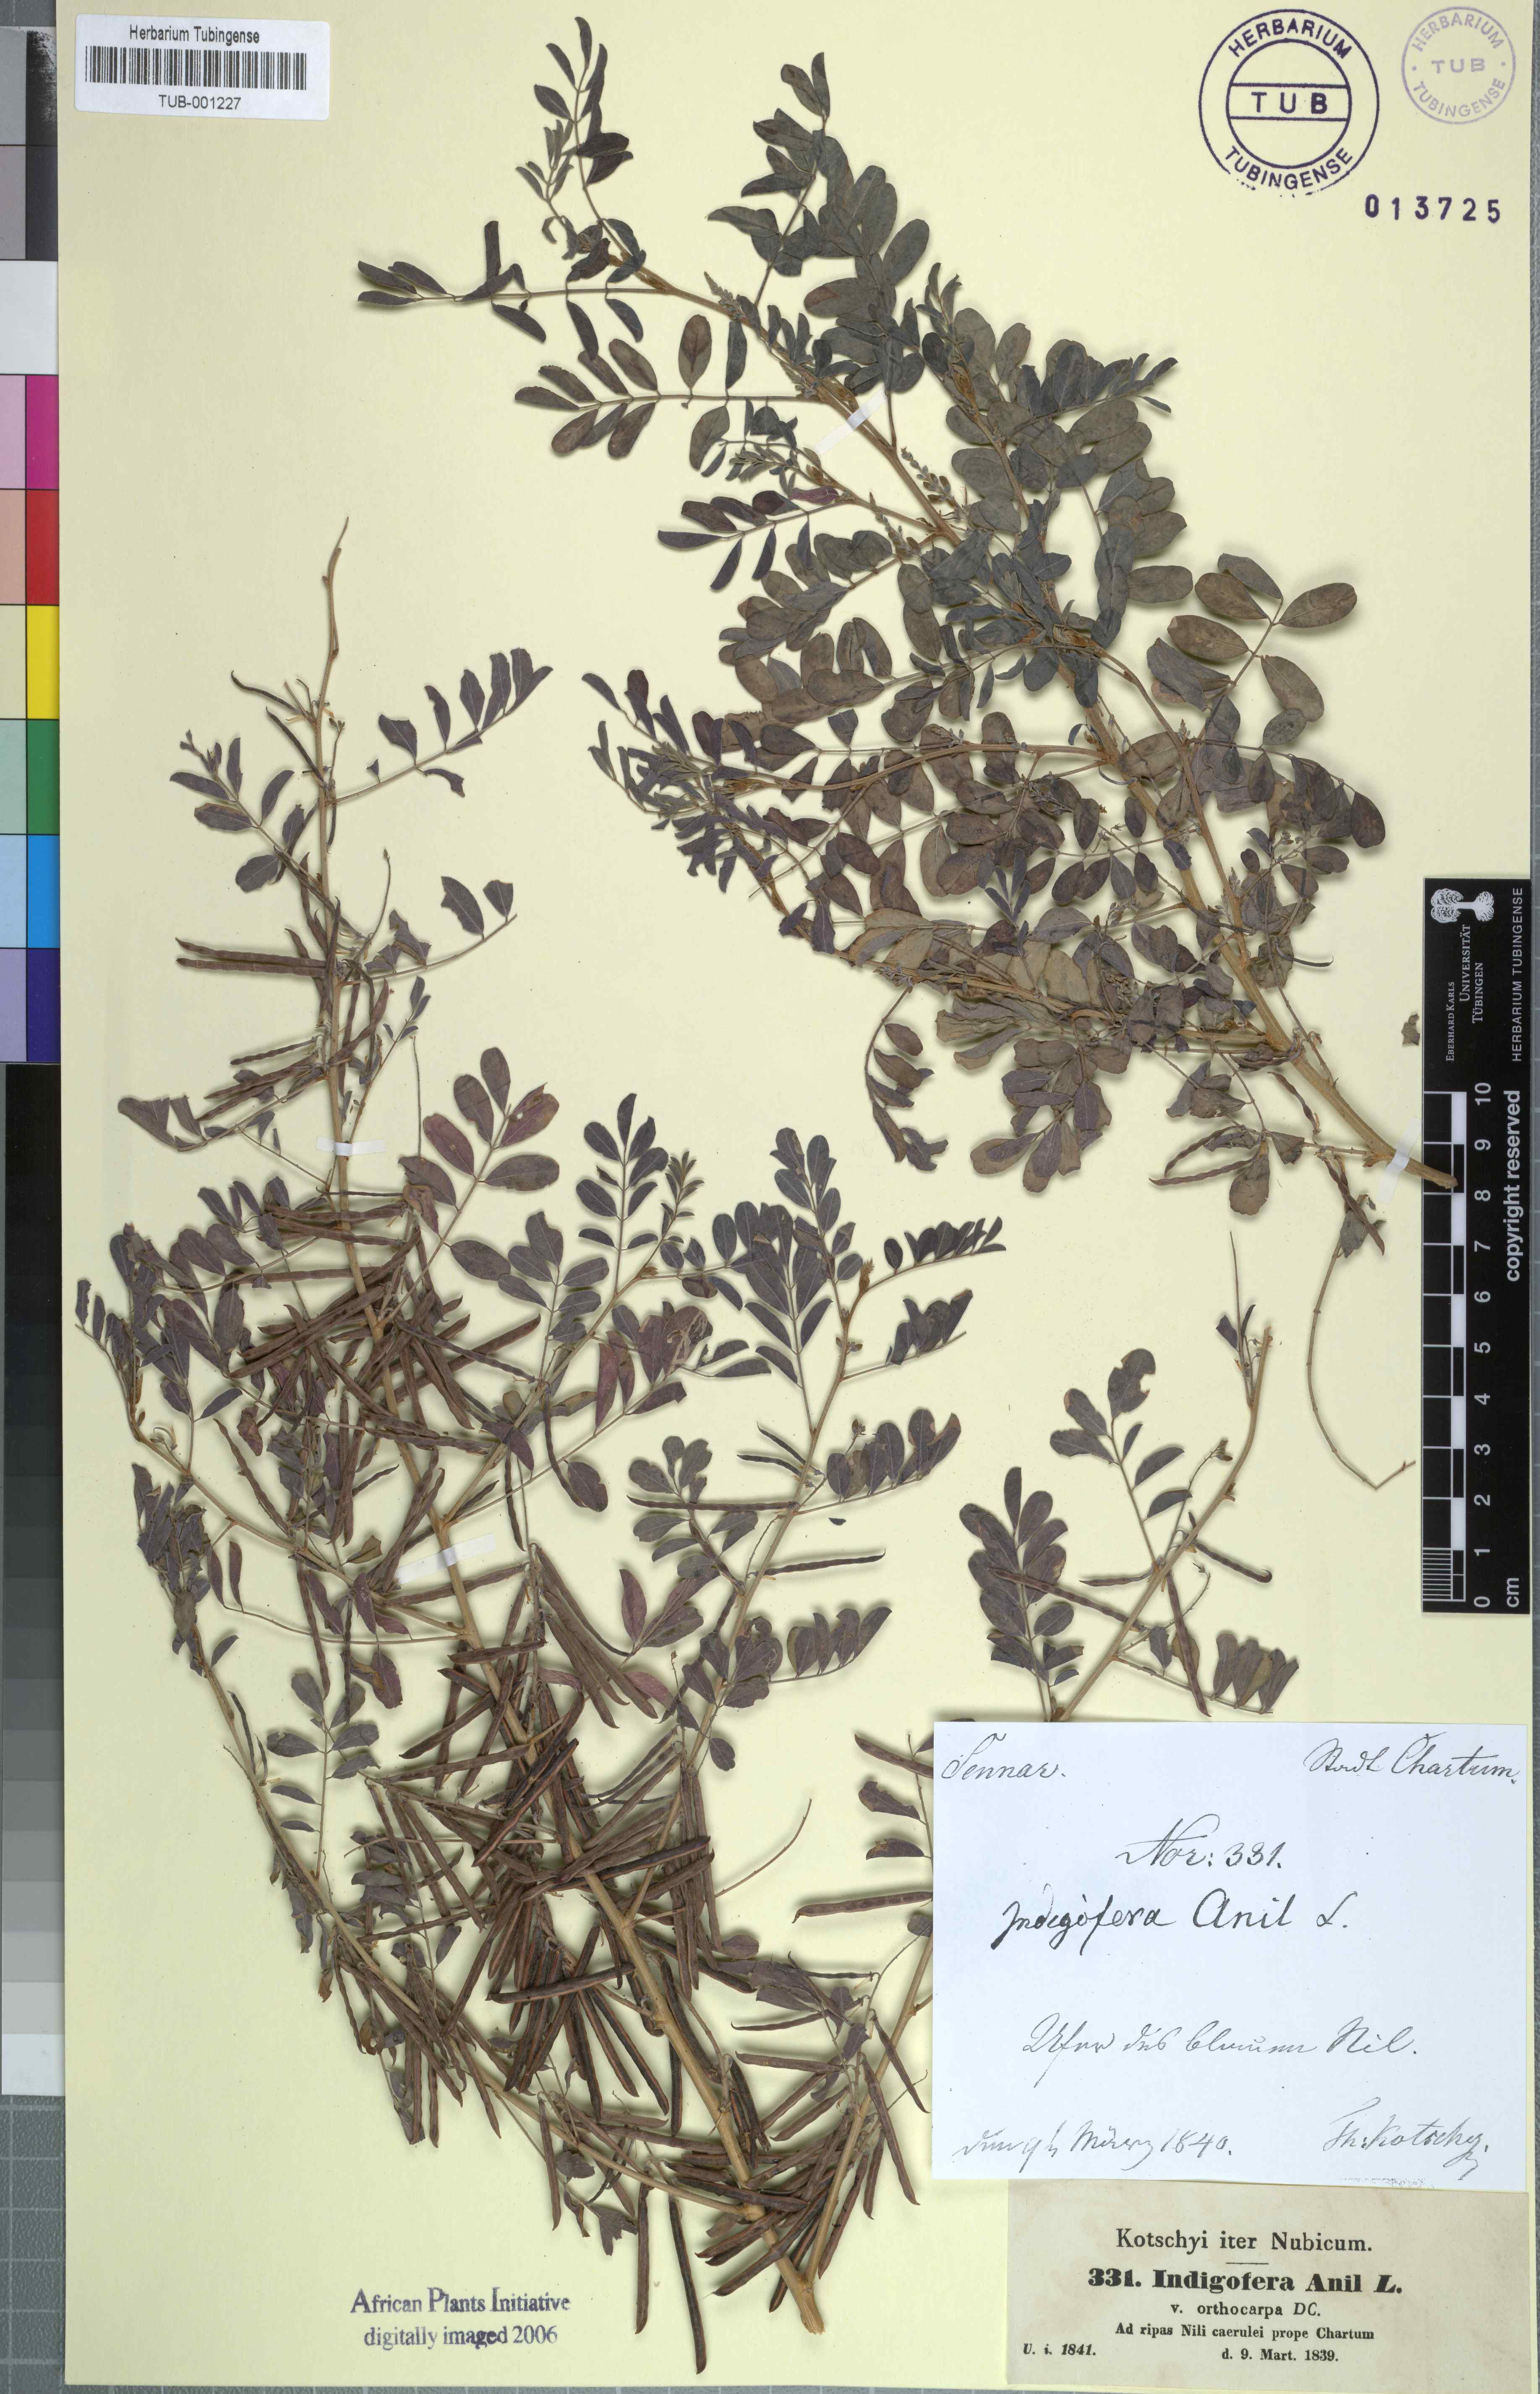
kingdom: Plantae
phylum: Tracheophyta
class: Magnoliopsida
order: Fabales
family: Fabaceae
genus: Indigofera
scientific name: Indigofera suffruticosa
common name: Anil de pasto
